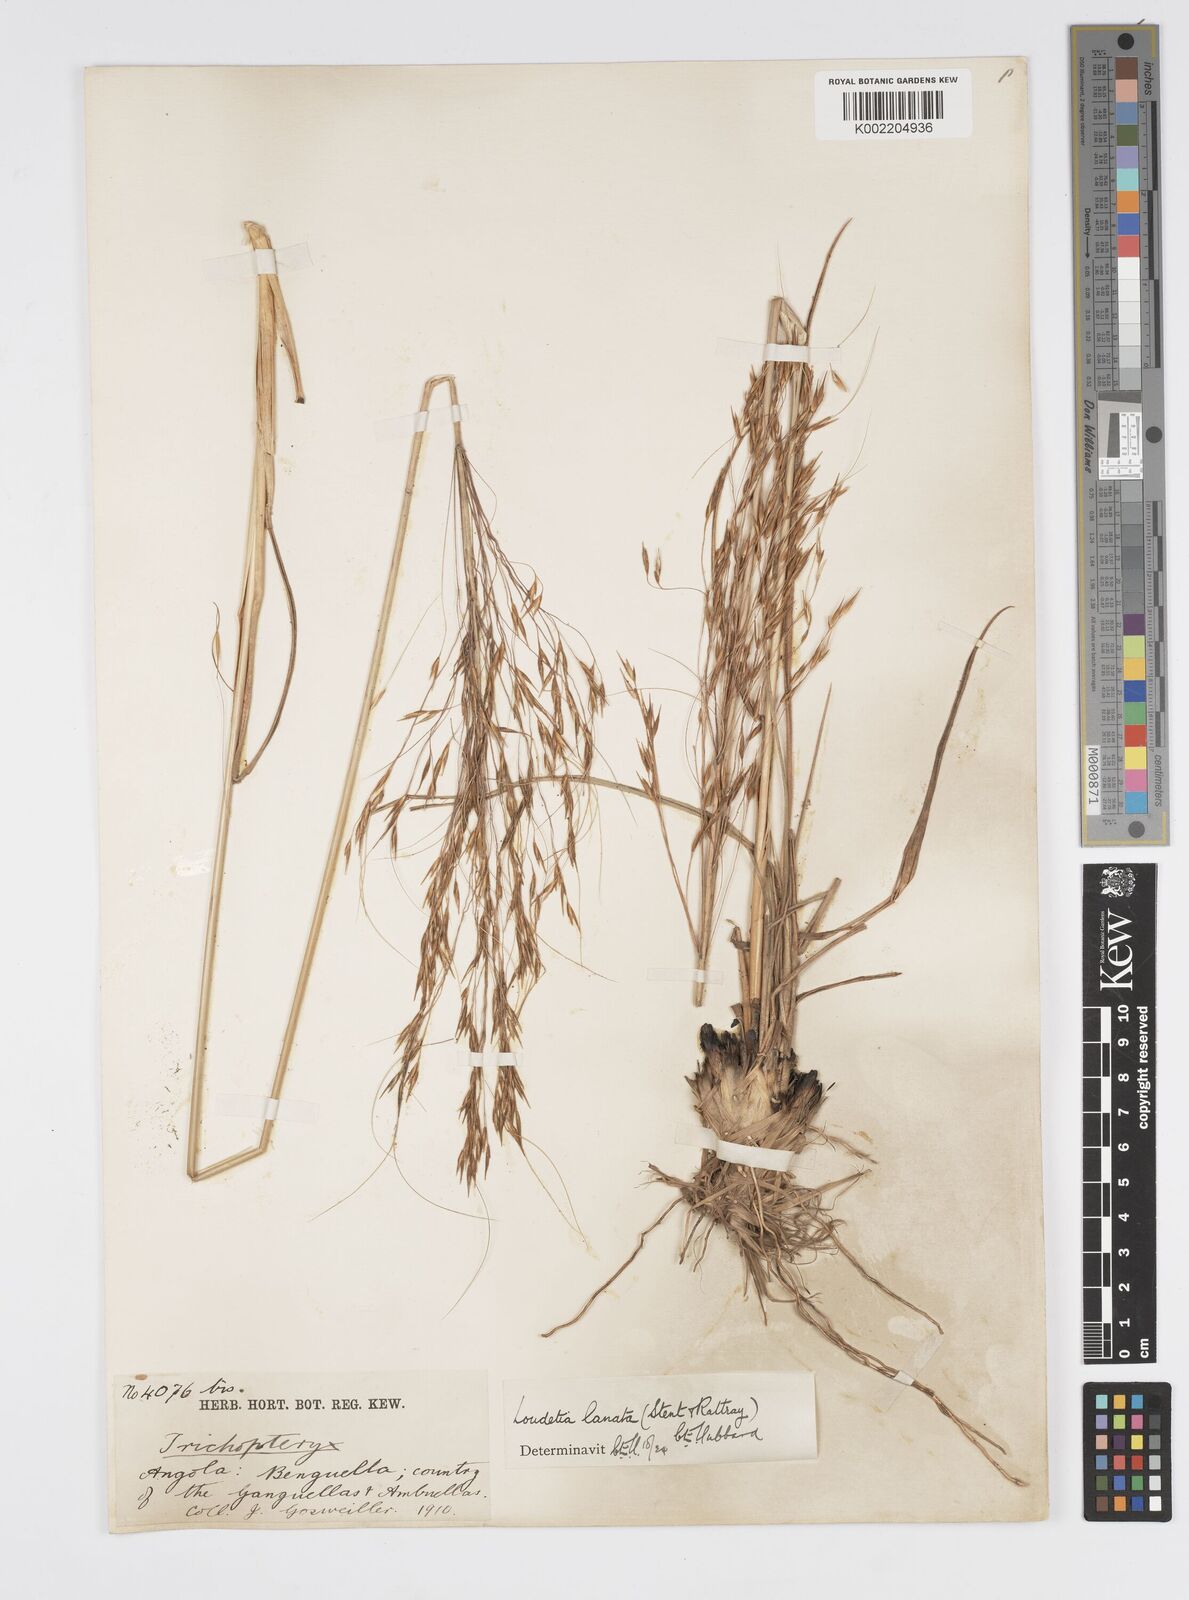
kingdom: Plantae
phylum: Tracheophyta
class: Liliopsida
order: Poales
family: Poaceae
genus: Loudetia
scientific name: Loudetia lanata
